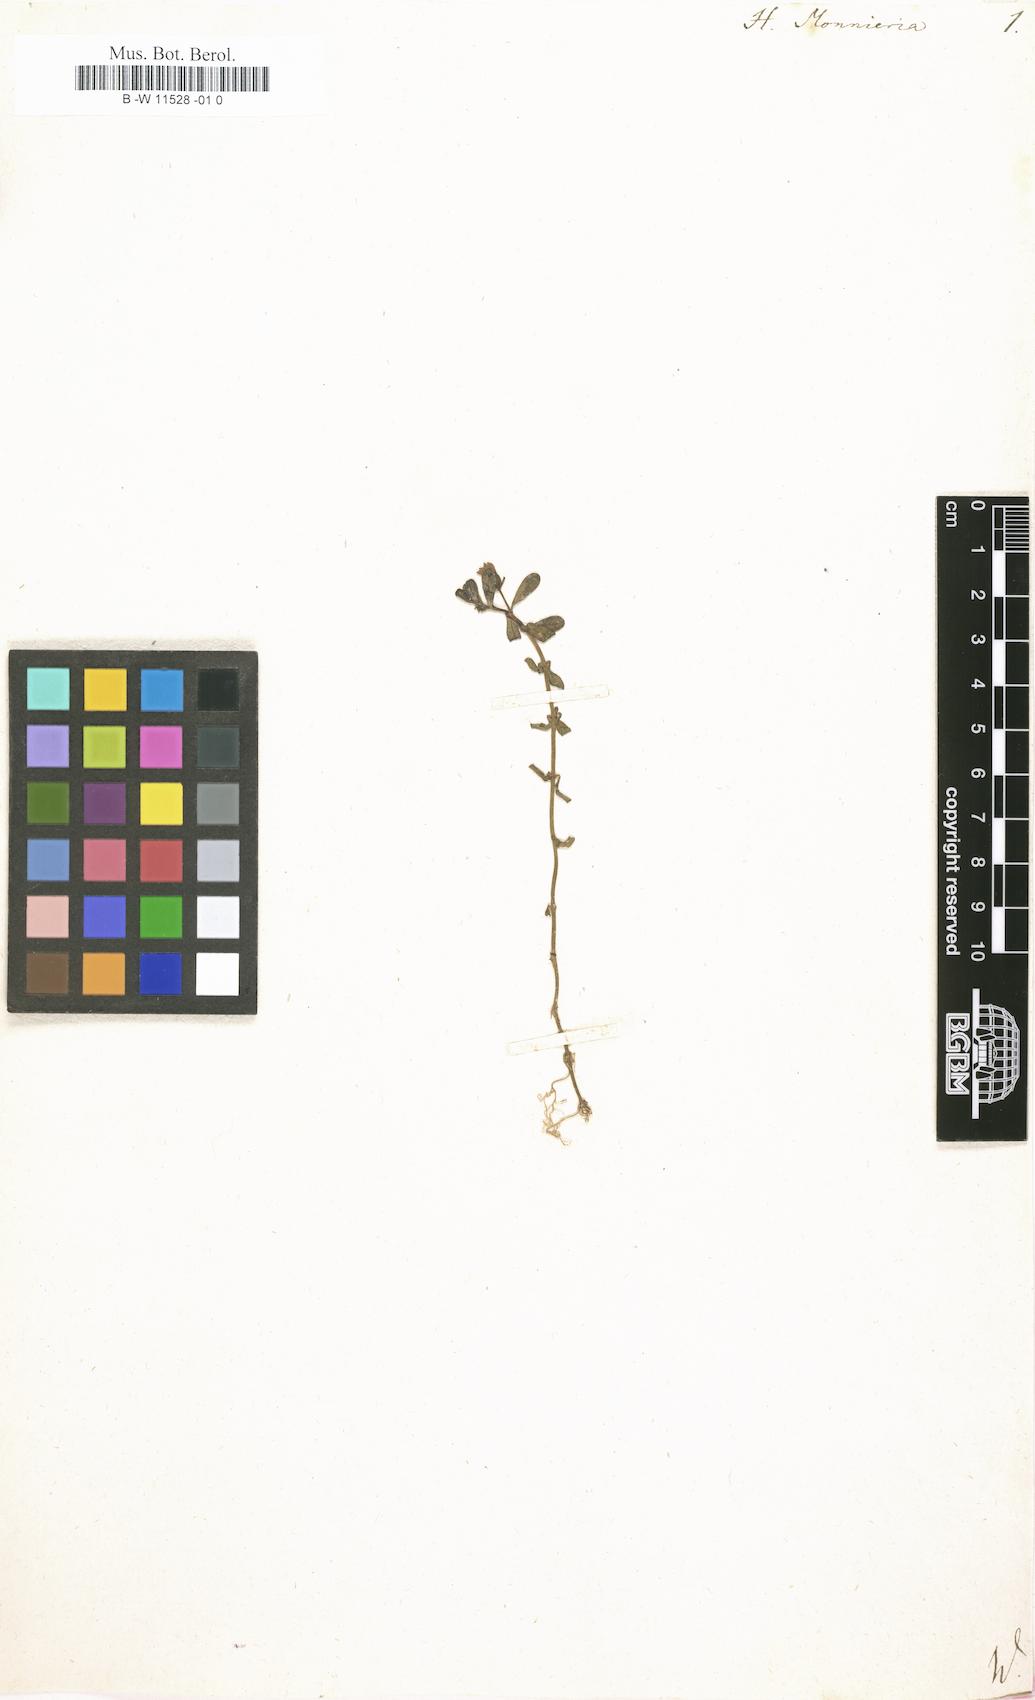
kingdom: Plantae
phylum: Tracheophyta
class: Magnoliopsida
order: Lamiales
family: Plantaginaceae
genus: Bacopa
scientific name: Bacopa monnieri
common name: Indian-pennywort
